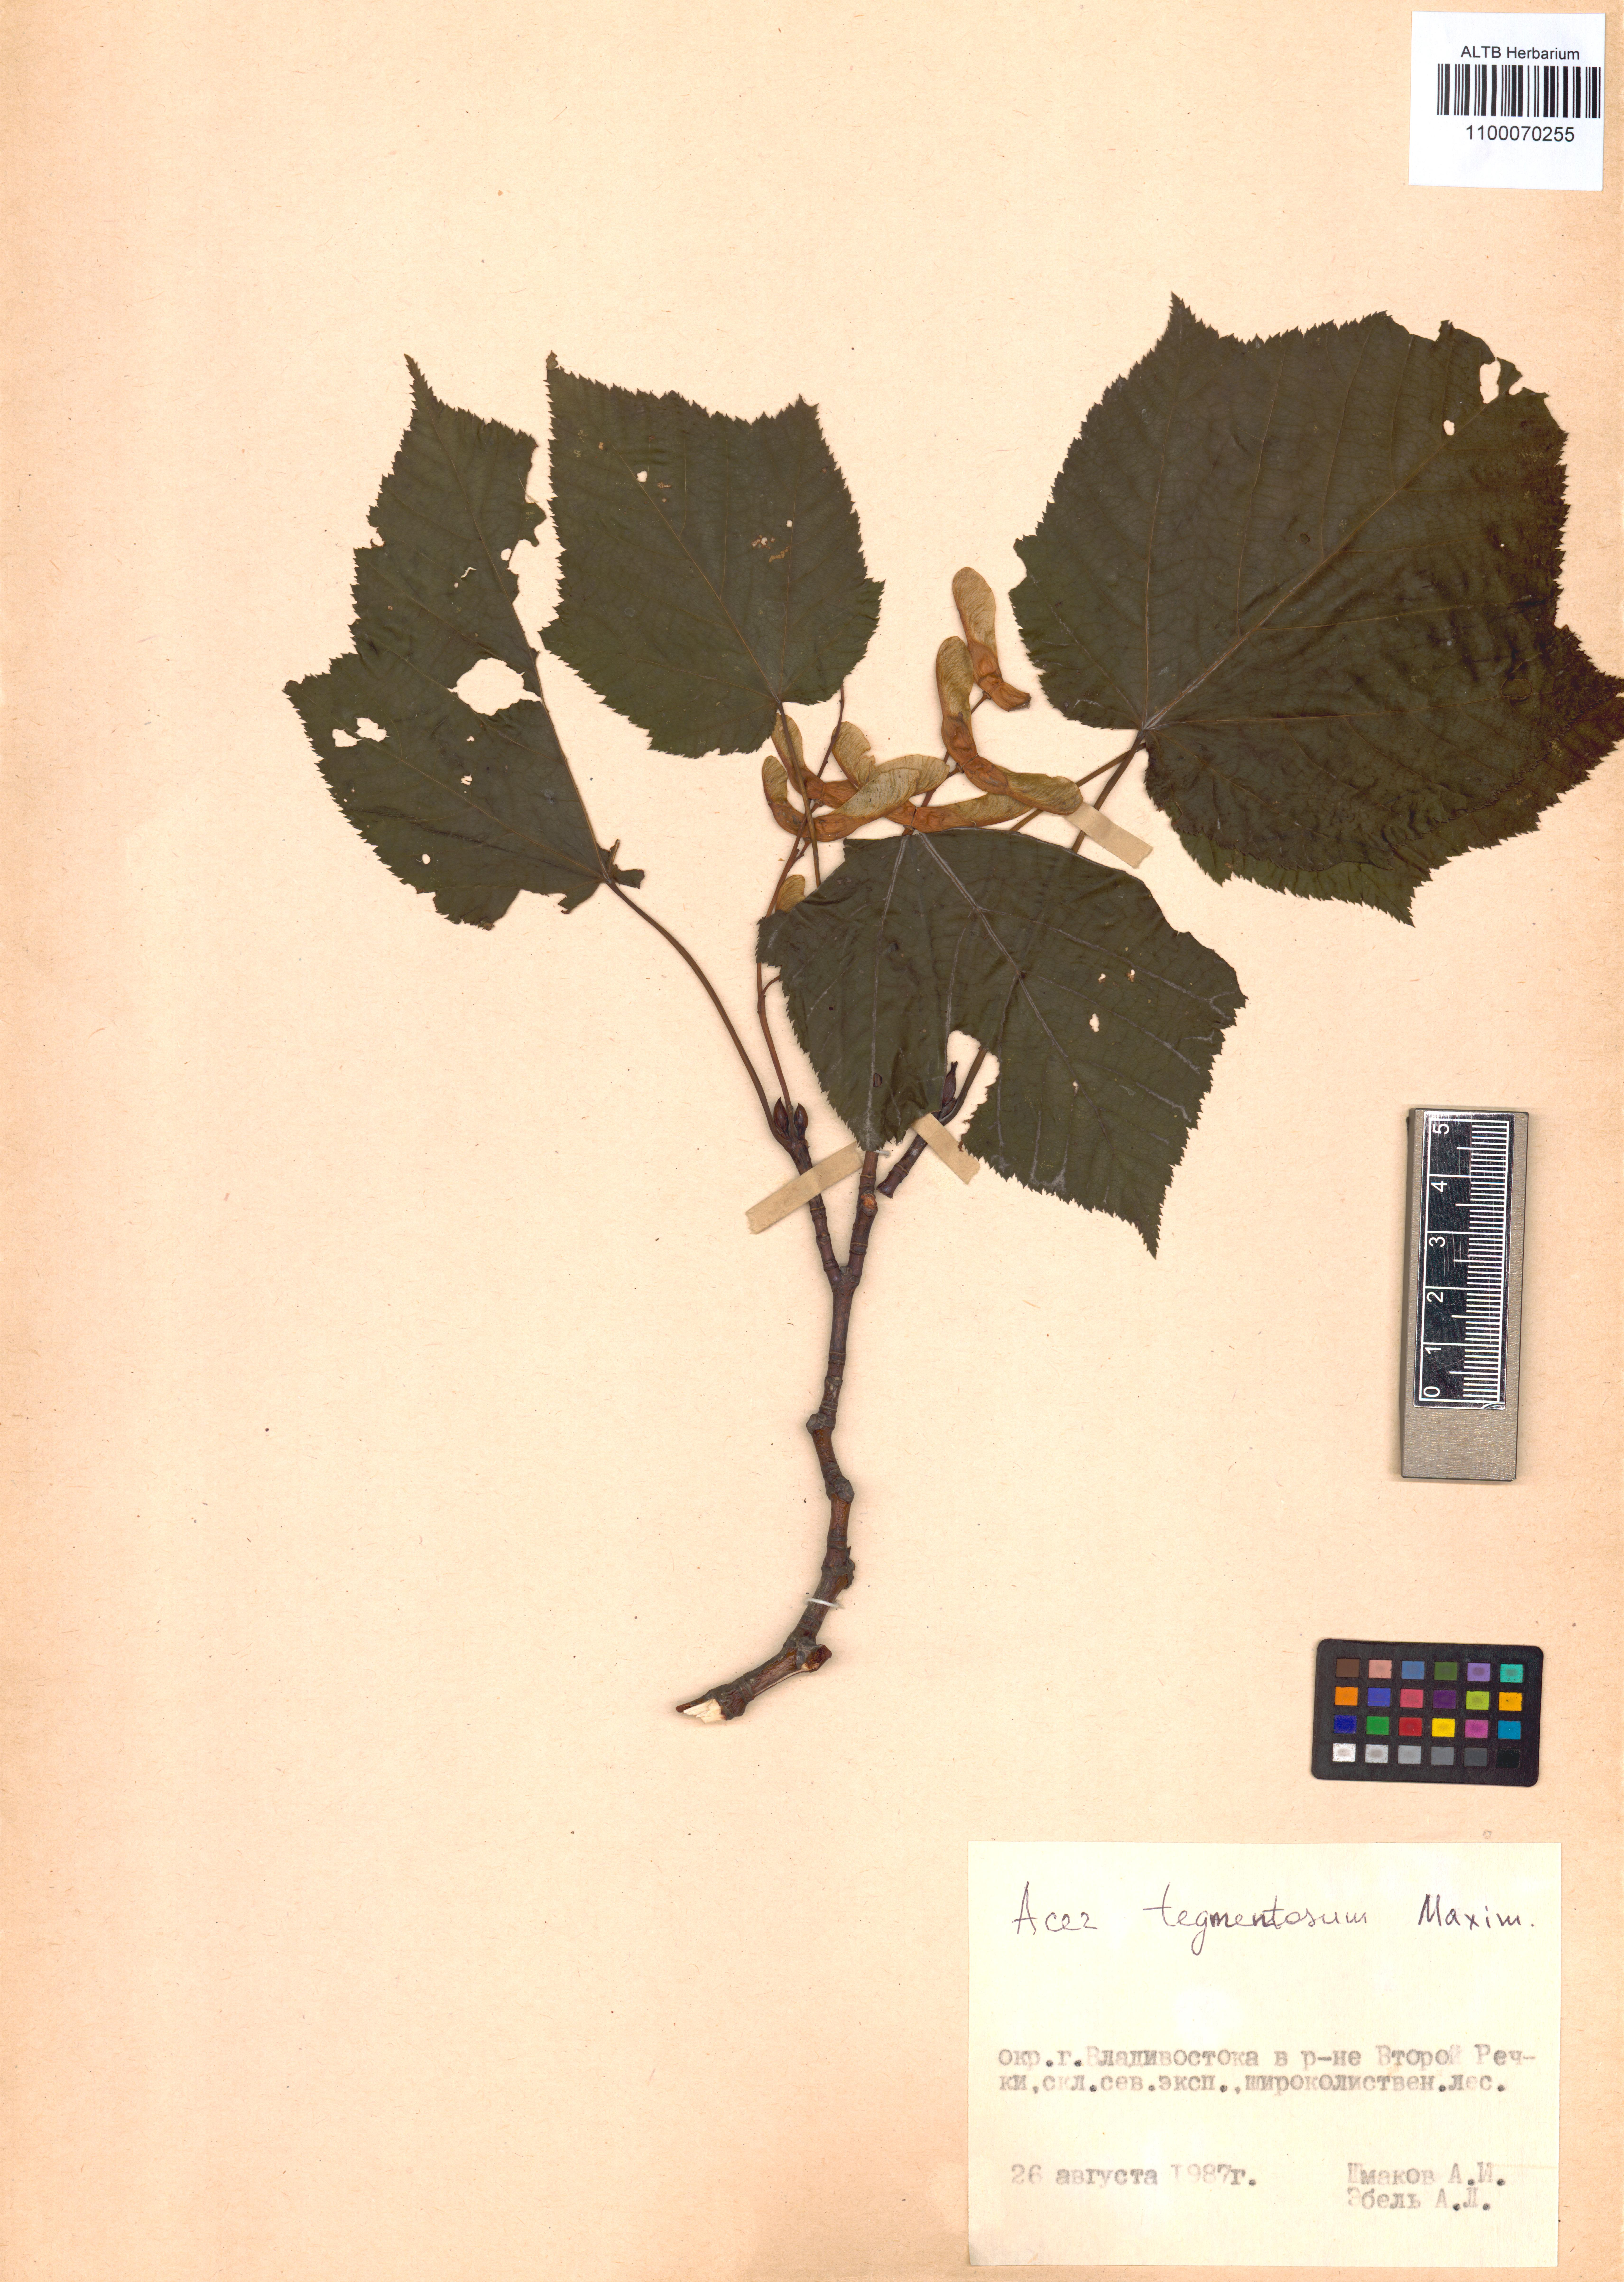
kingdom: Plantae
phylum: Tracheophyta
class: Magnoliopsida
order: Sapindales
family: Sapindaceae
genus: Acer
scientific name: Acer tegmentosum
